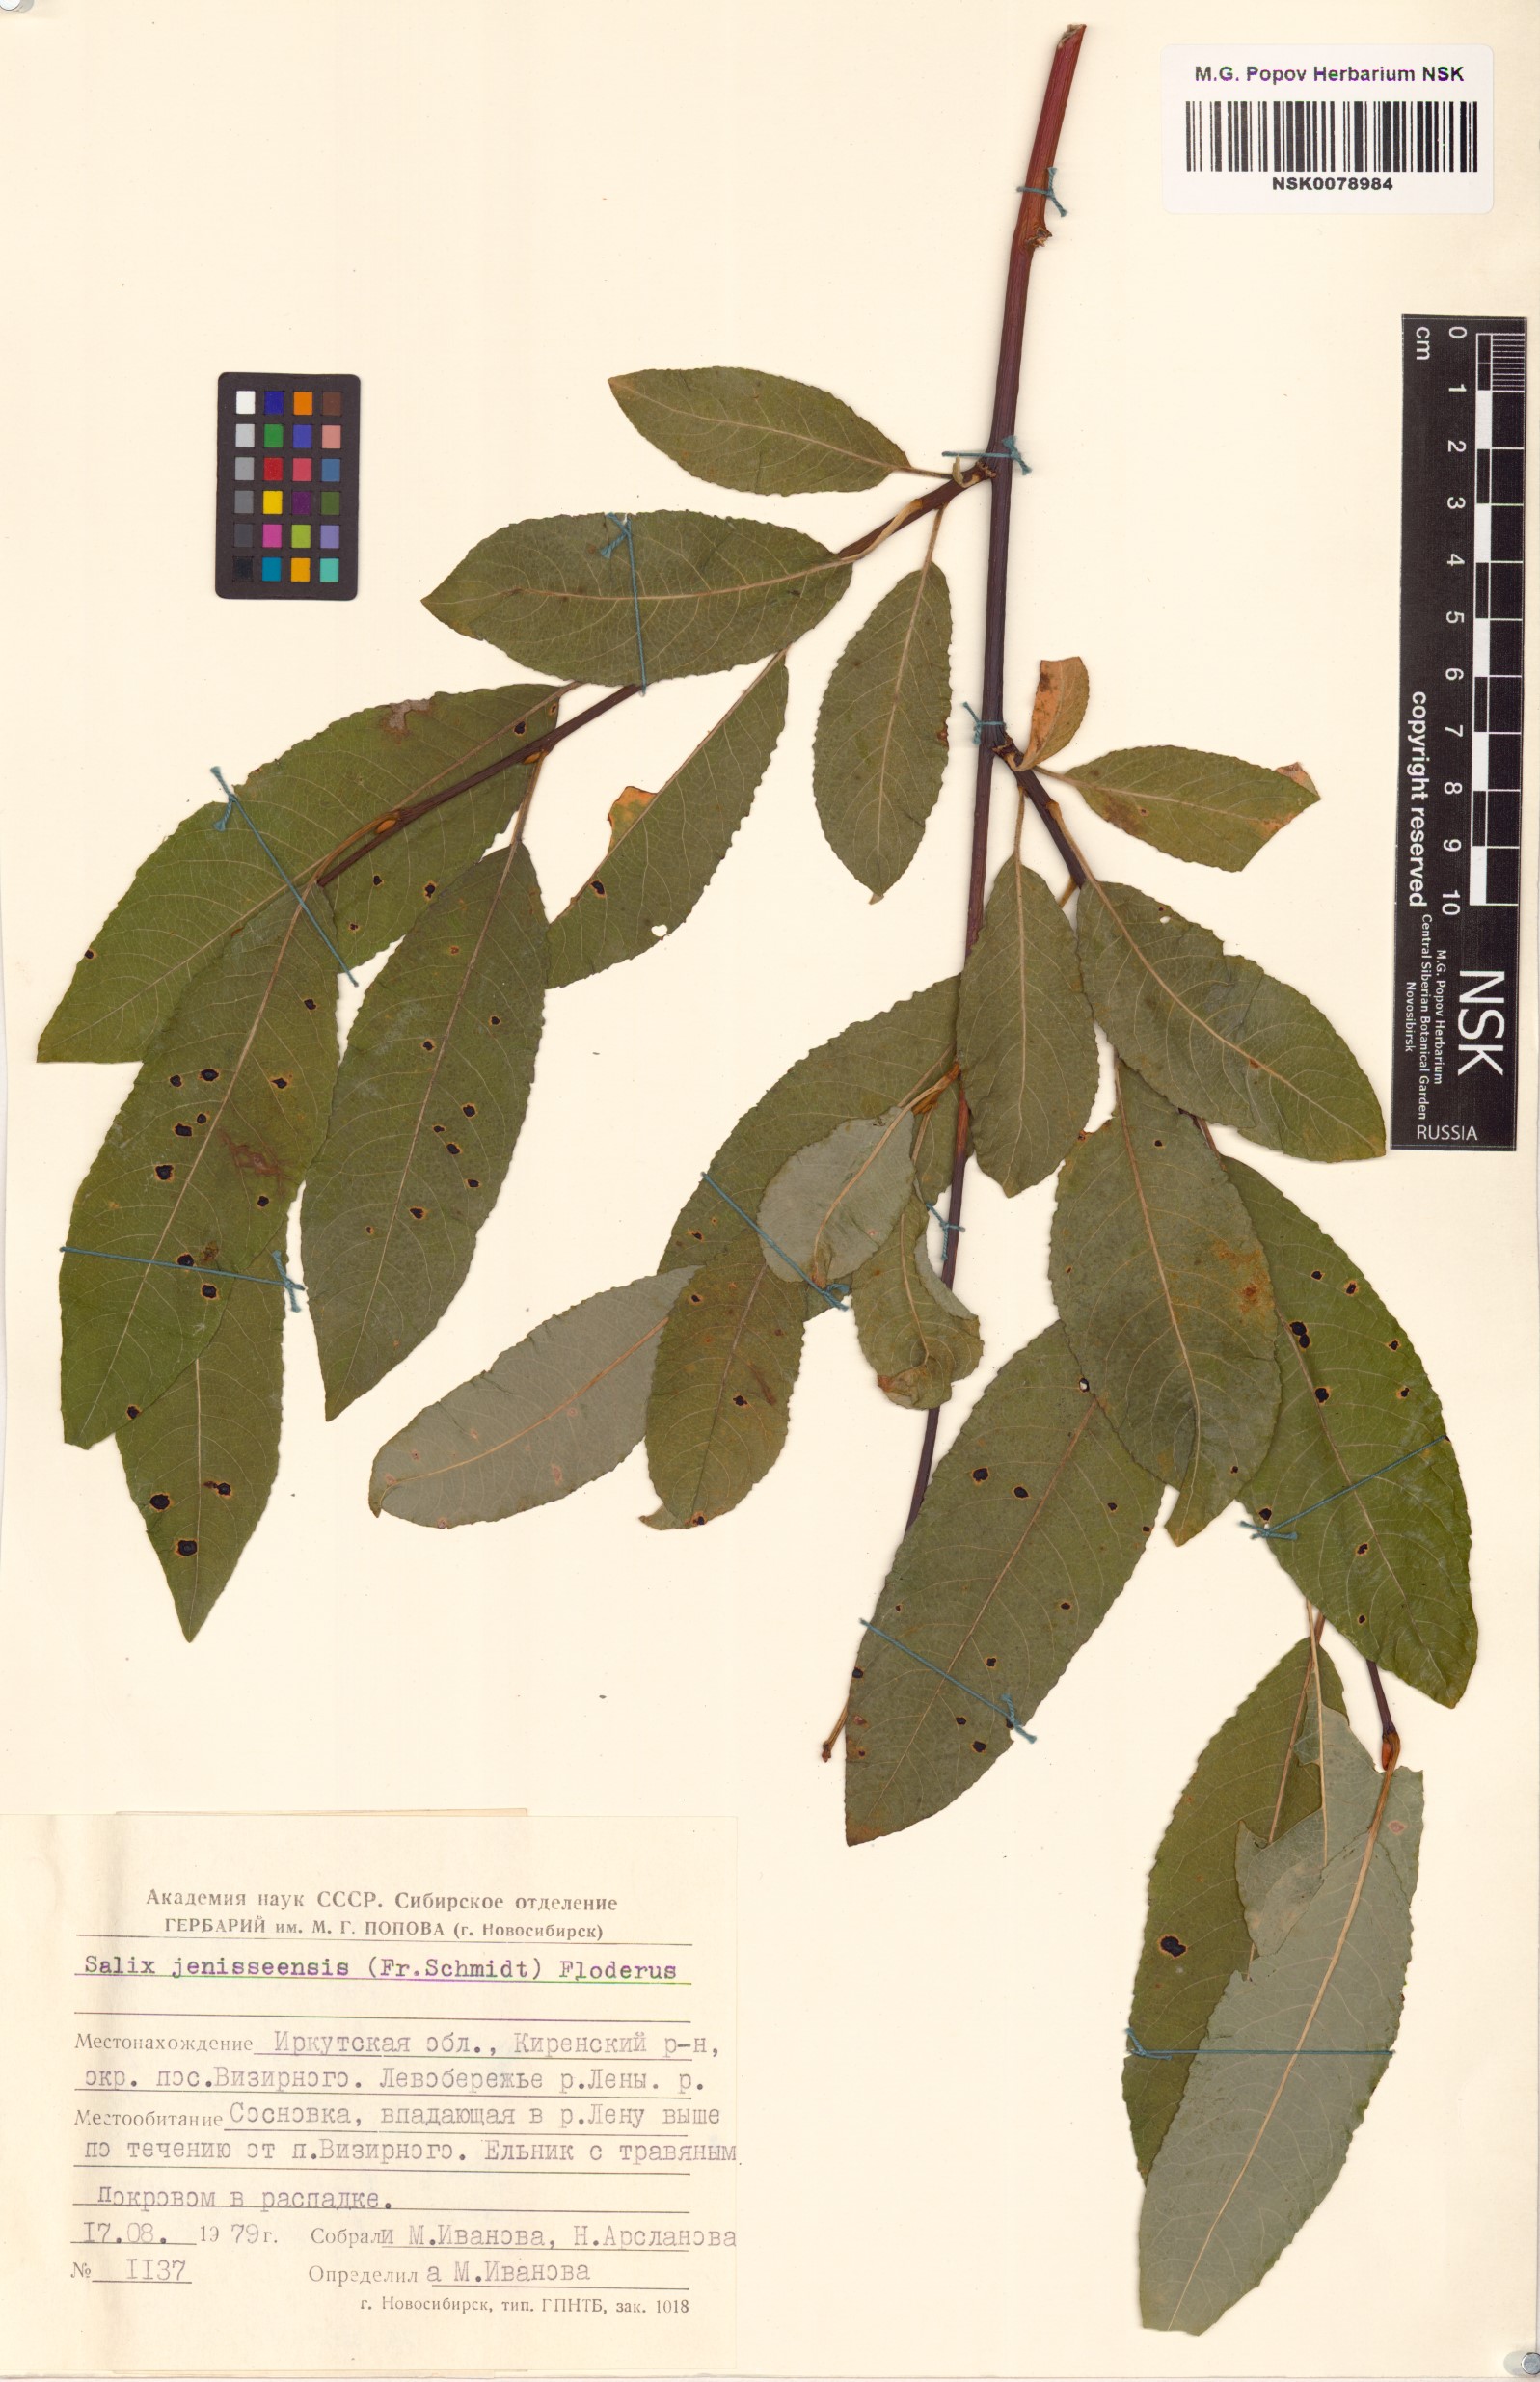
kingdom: Plantae
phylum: Tracheophyta
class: Magnoliopsida
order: Malpighiales
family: Salicaceae
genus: Salix
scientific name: Salix jenisseensis
